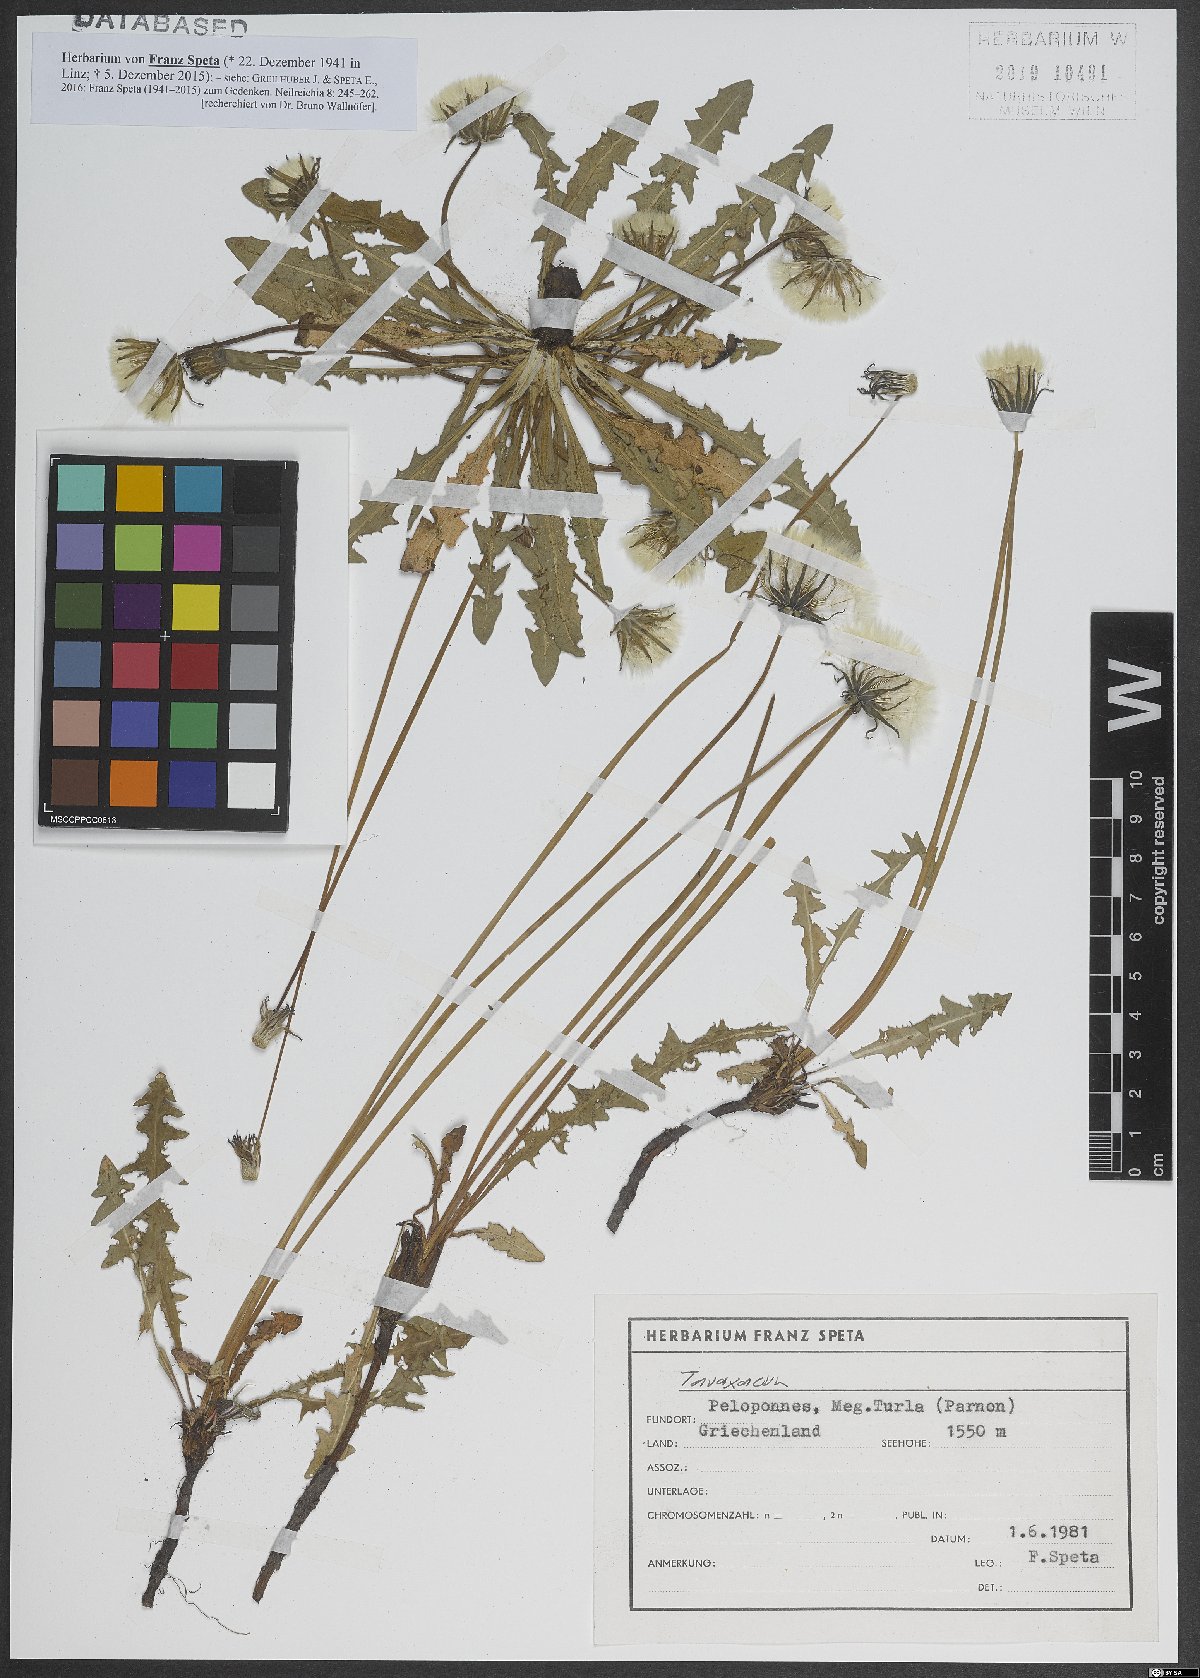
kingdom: Plantae
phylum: Tracheophyta
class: Magnoliopsida
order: Asterales
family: Asteraceae
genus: Taraxacum
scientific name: Taraxacum
